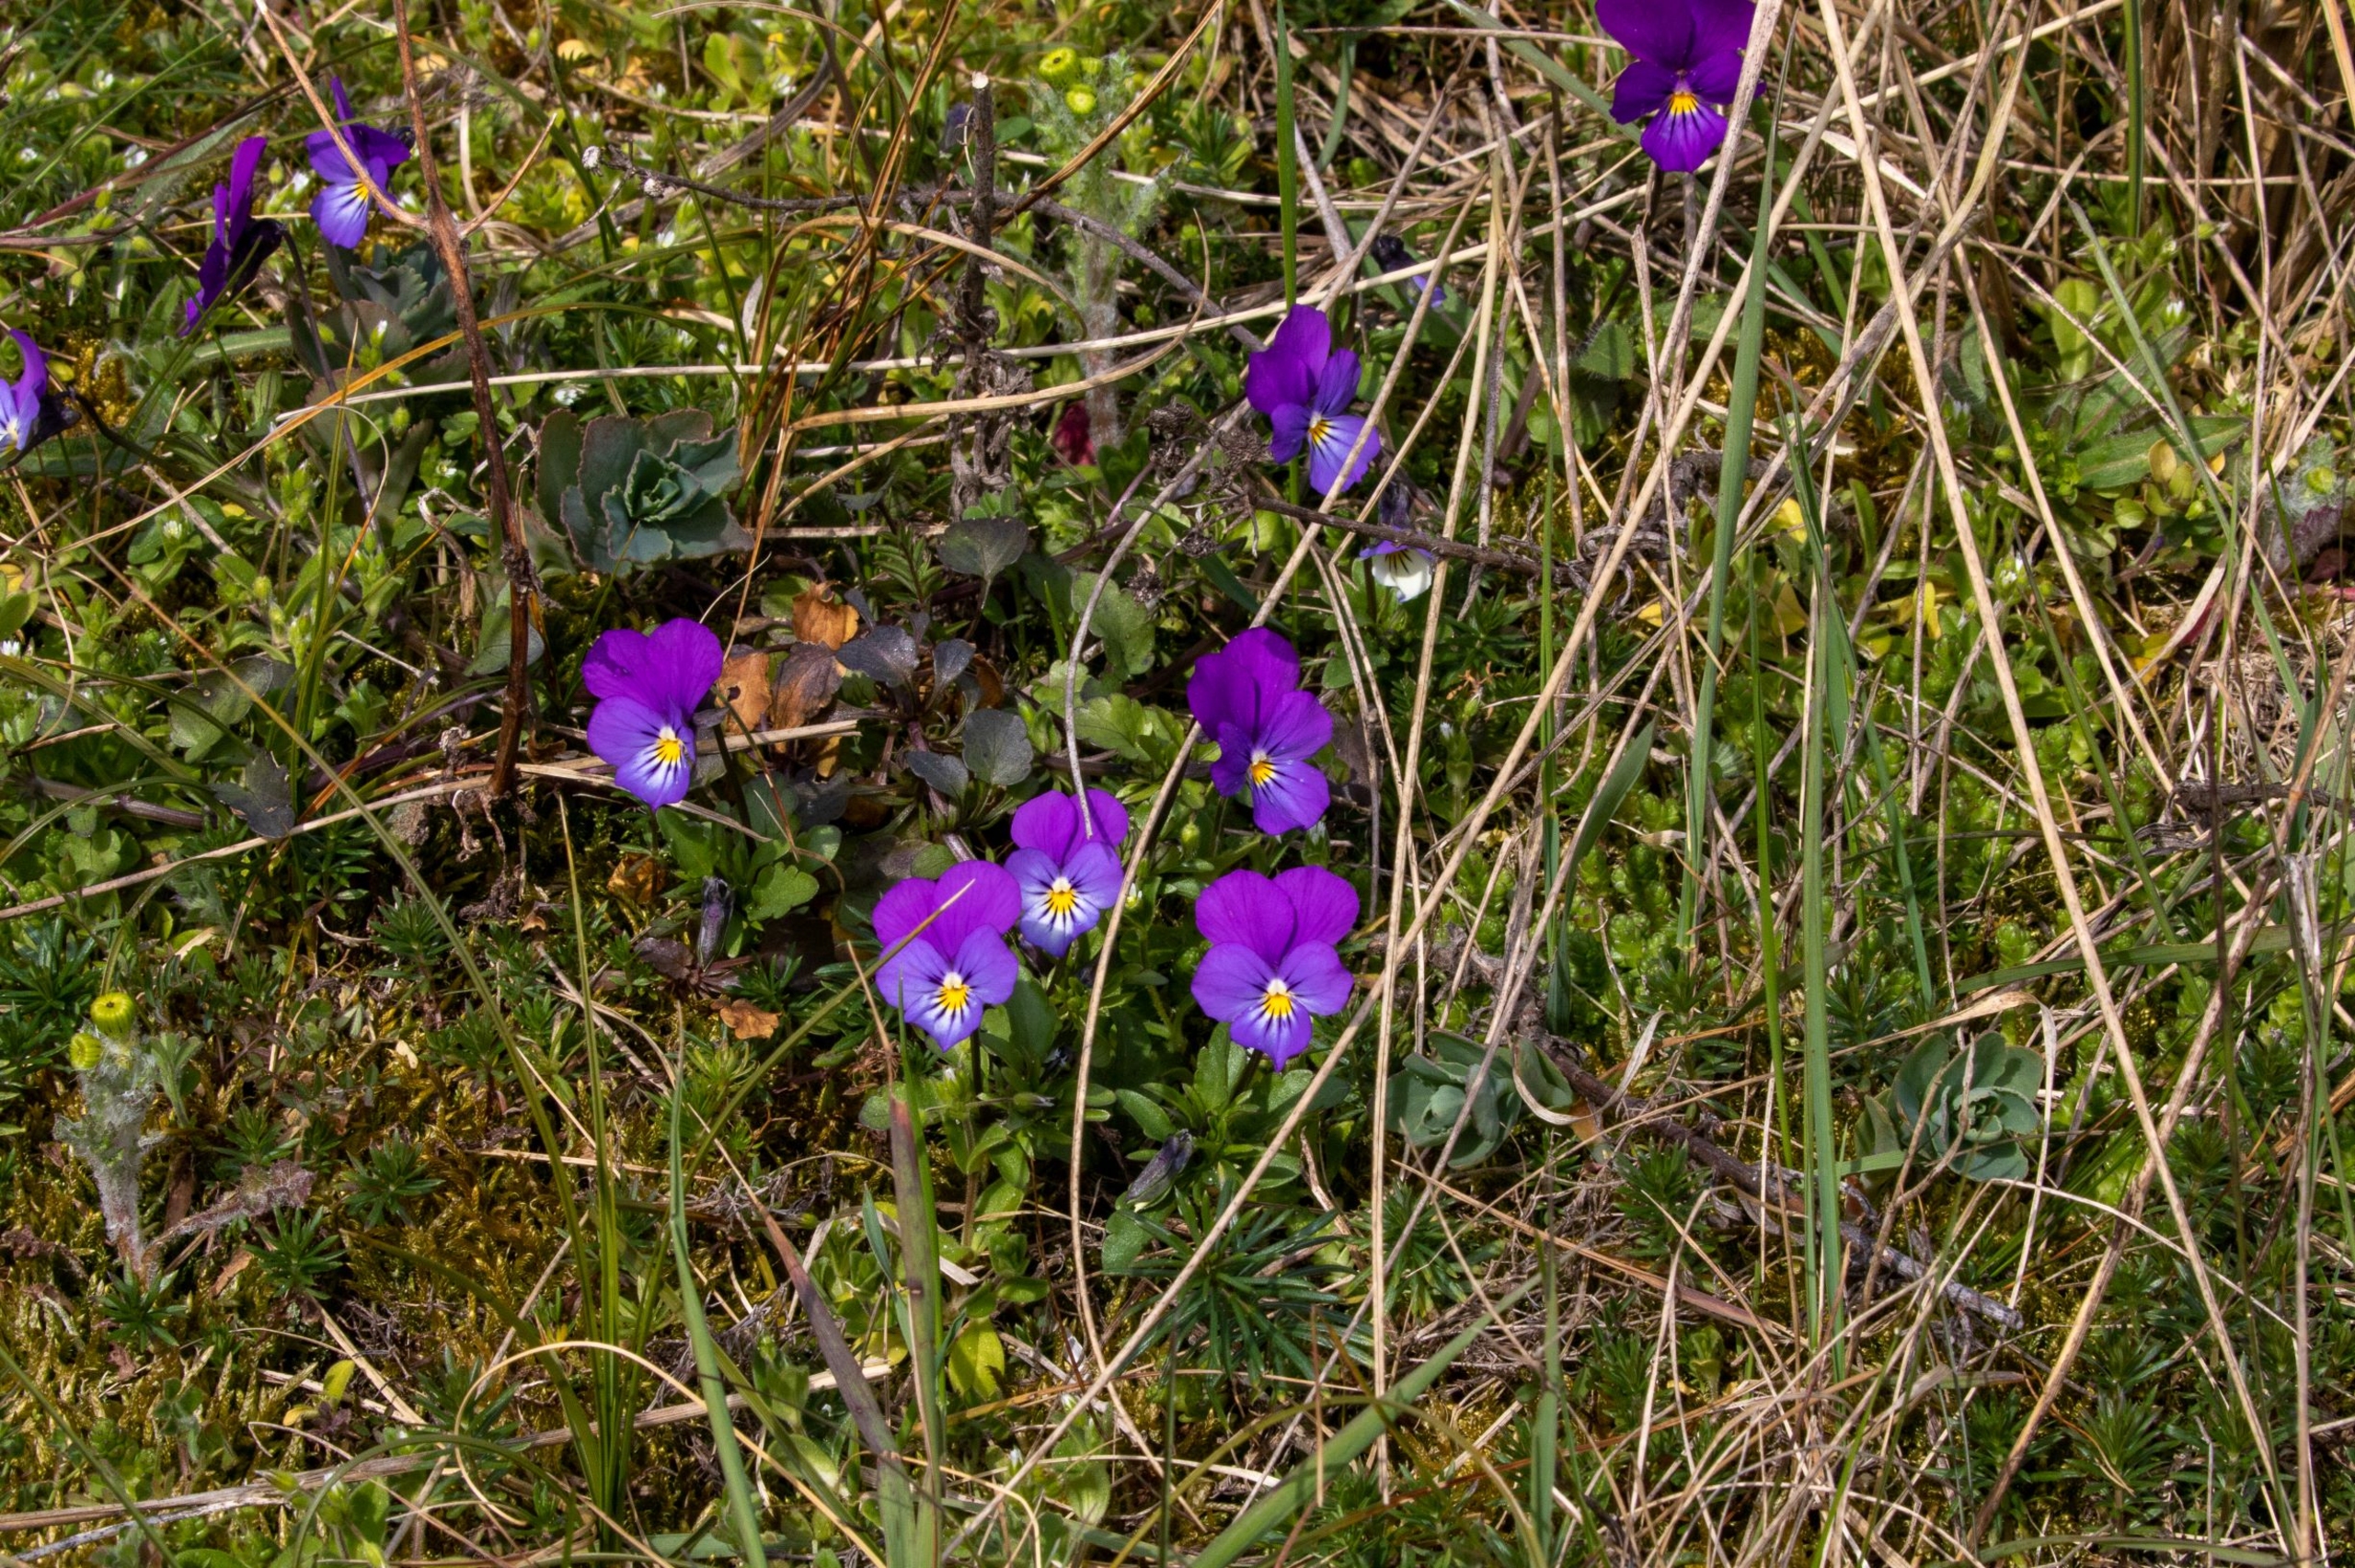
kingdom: Plantae
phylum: Tracheophyta
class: Magnoliopsida
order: Malpighiales
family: Violaceae
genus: Viola
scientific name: Viola tricolor
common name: Stedmoderblomst
